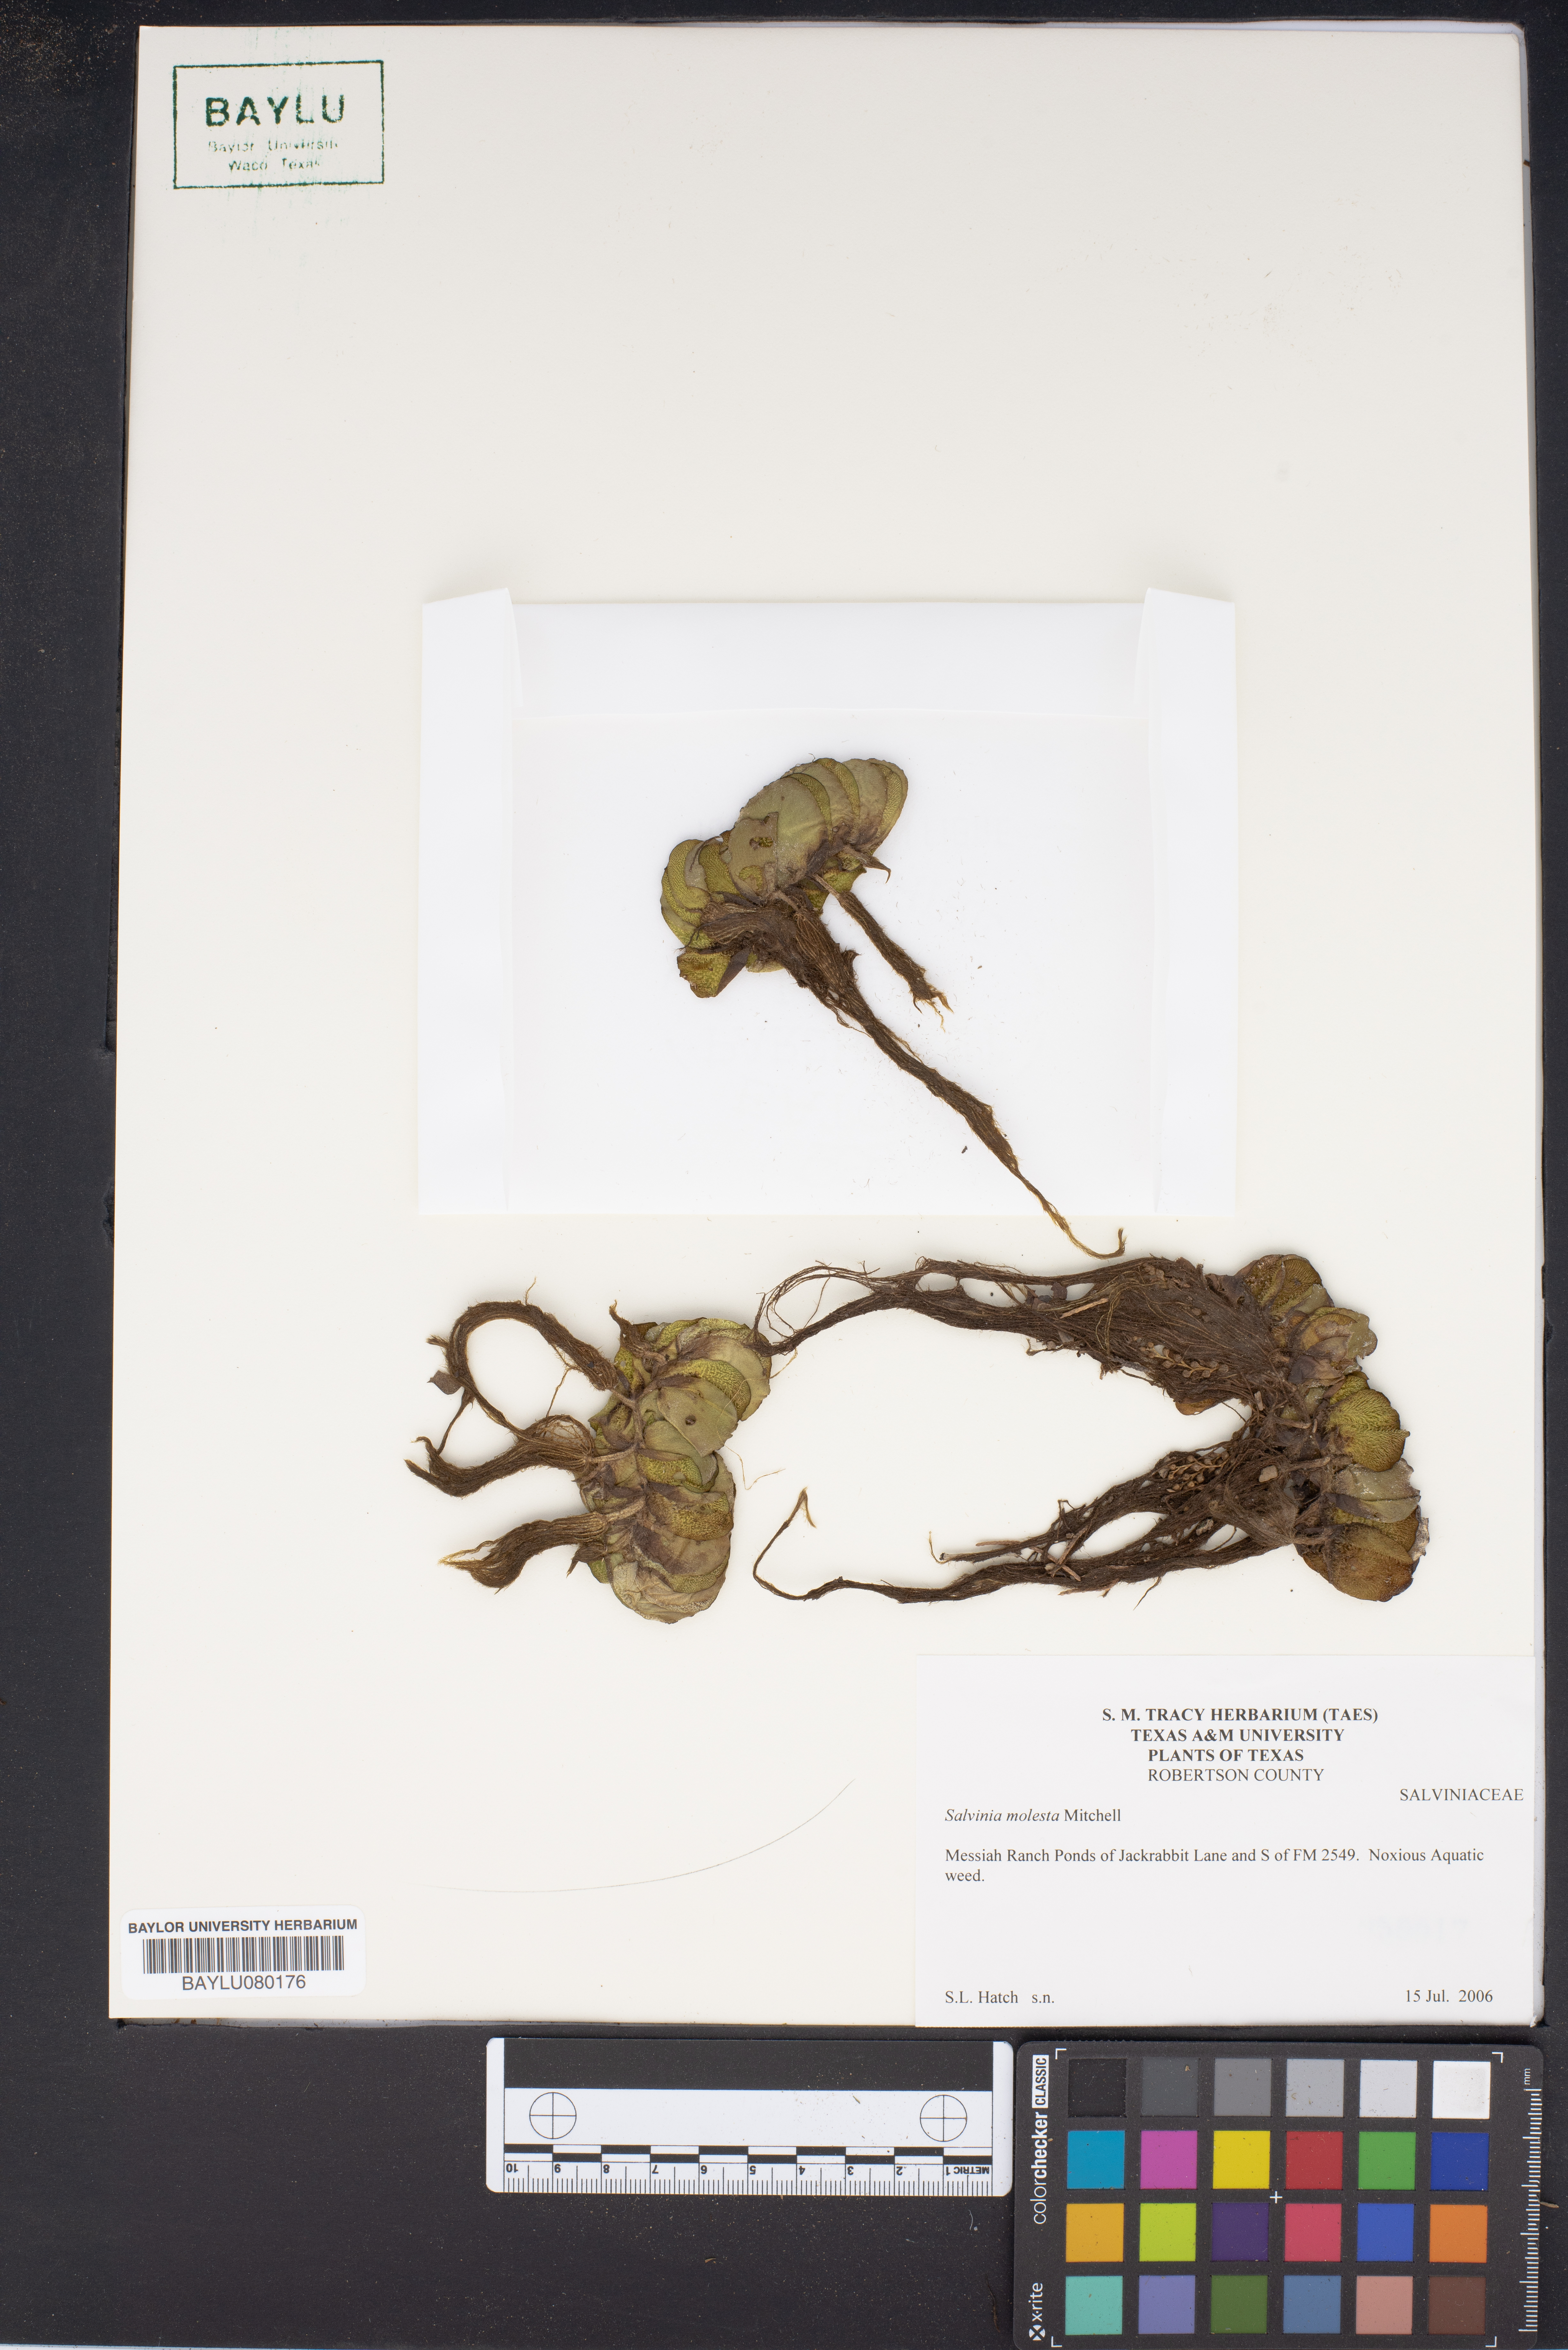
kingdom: Plantae
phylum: Tracheophyta
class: Polypodiopsida
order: Salviniales
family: Salviniaceae
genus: Salvinia
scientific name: Salvinia molesta
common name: Kariba weed
